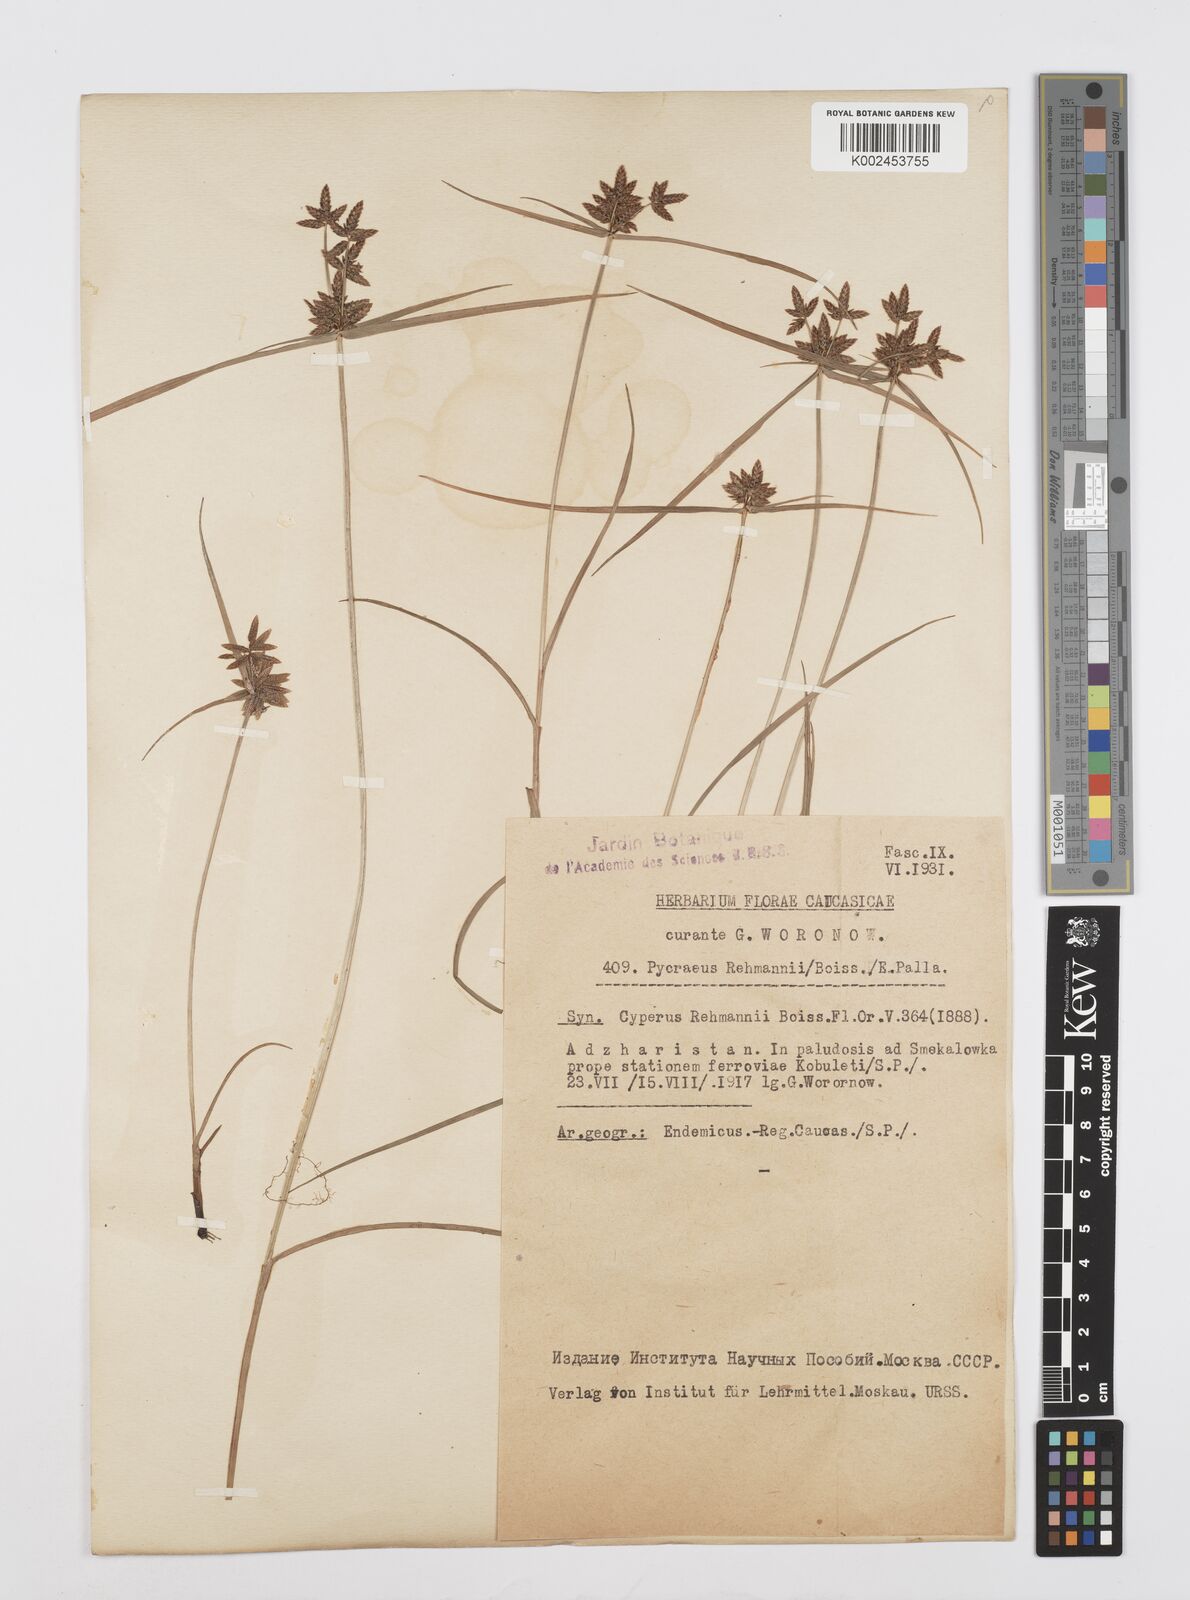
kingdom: Plantae
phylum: Tracheophyta
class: Liliopsida
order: Poales
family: Cyperaceae
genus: Cyperus
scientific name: Cyperus sanguinolentus
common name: Purpleglume flatsedge
